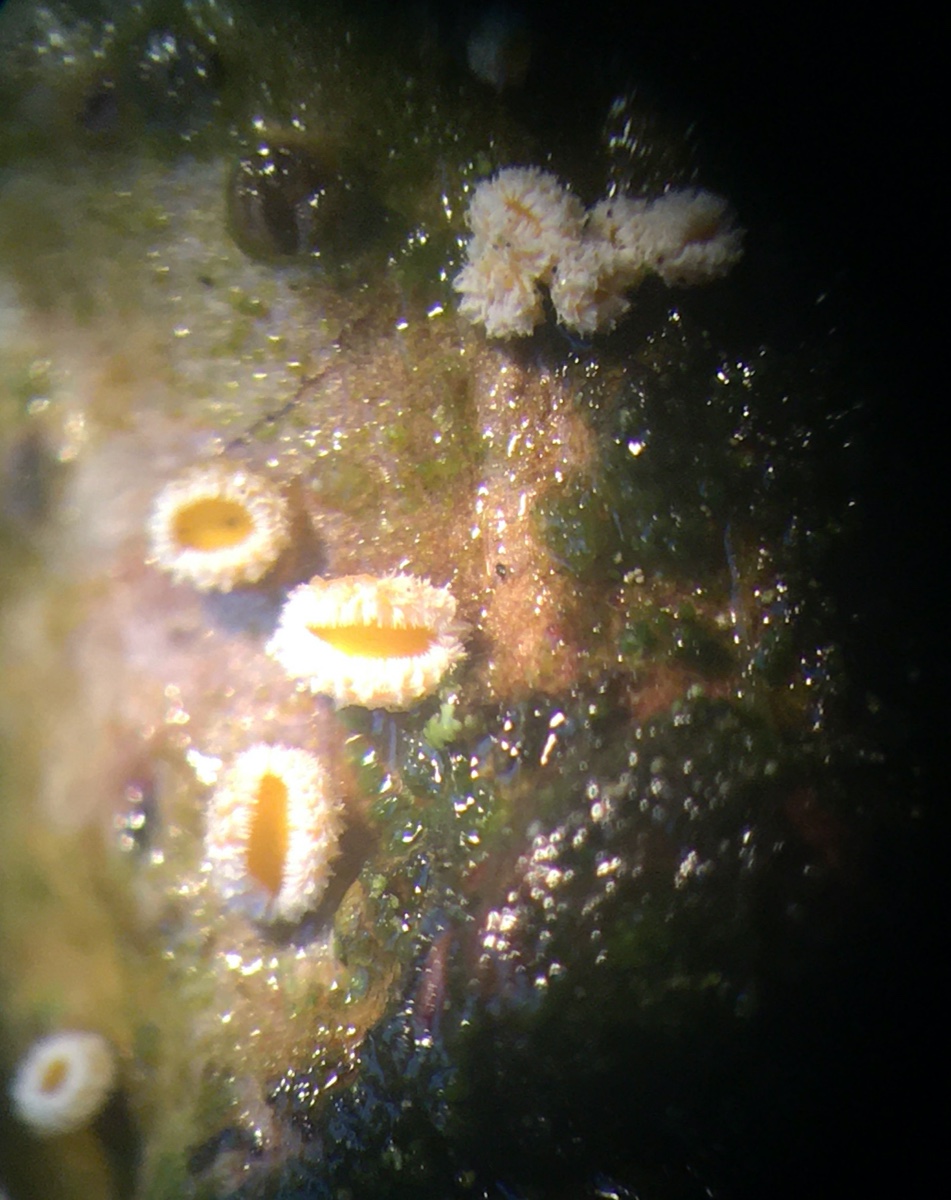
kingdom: Fungi
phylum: Ascomycota
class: Leotiomycetes
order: Helotiales
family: Lachnaceae
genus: Capitotricha
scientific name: Capitotricha bicolor
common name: prægtig frynseskive
